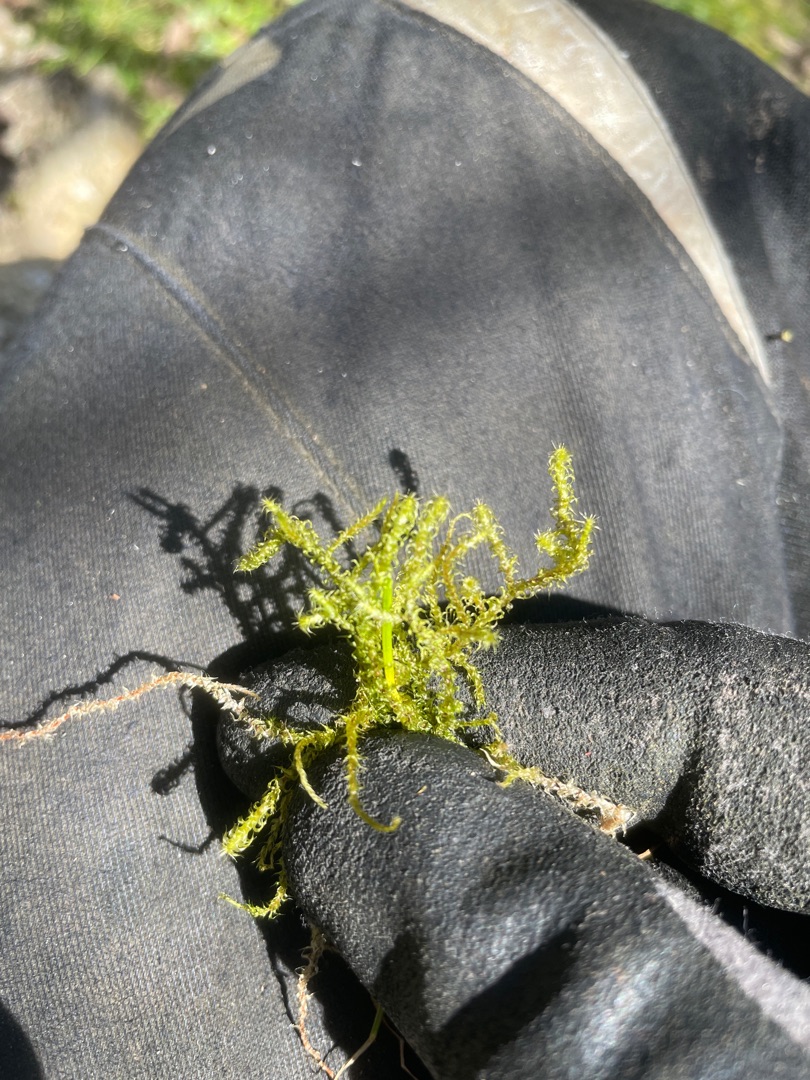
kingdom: Plantae
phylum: Bryophyta
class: Bryopsida
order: Hypnales
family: Hylocomiaceae
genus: Rhytidiadelphus
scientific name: Rhytidiadelphus squarrosus
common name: Plæne-kransemos
